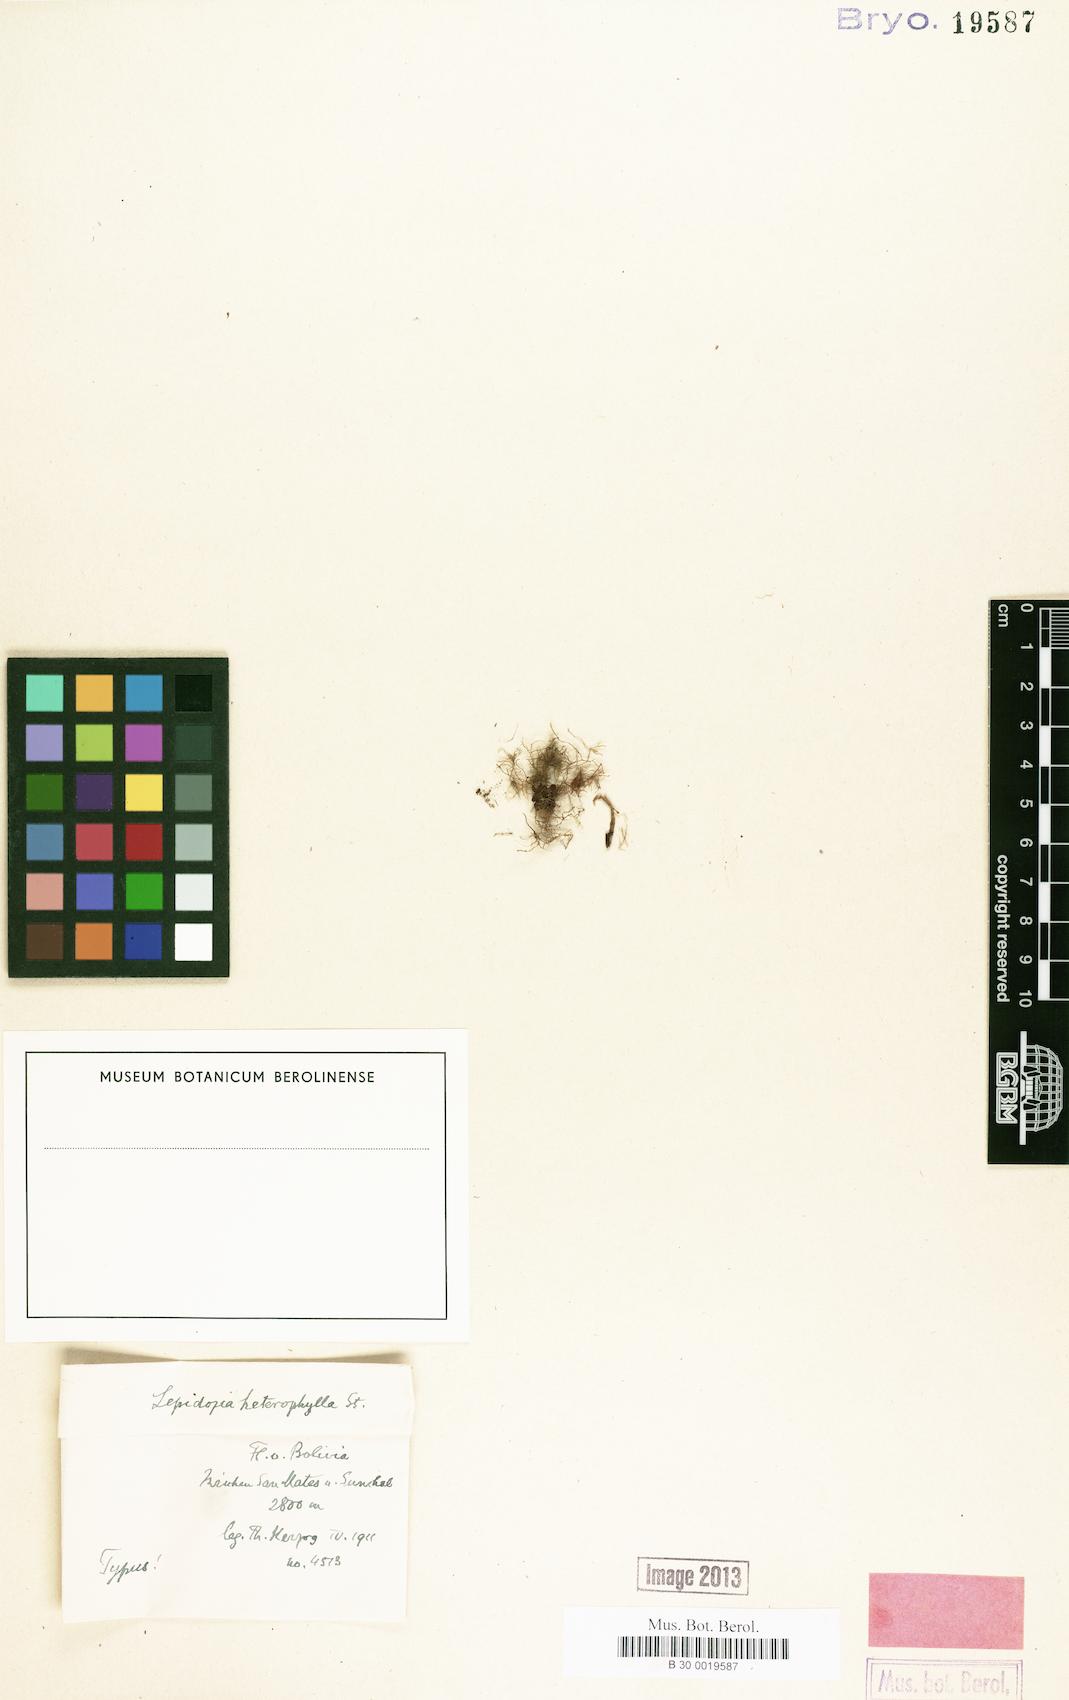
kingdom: Plantae
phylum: Marchantiophyta
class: Jungermanniopsida
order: Jungermanniales
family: Lepidoziaceae
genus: Lepidozia
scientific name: Lepidozia heterophylla
